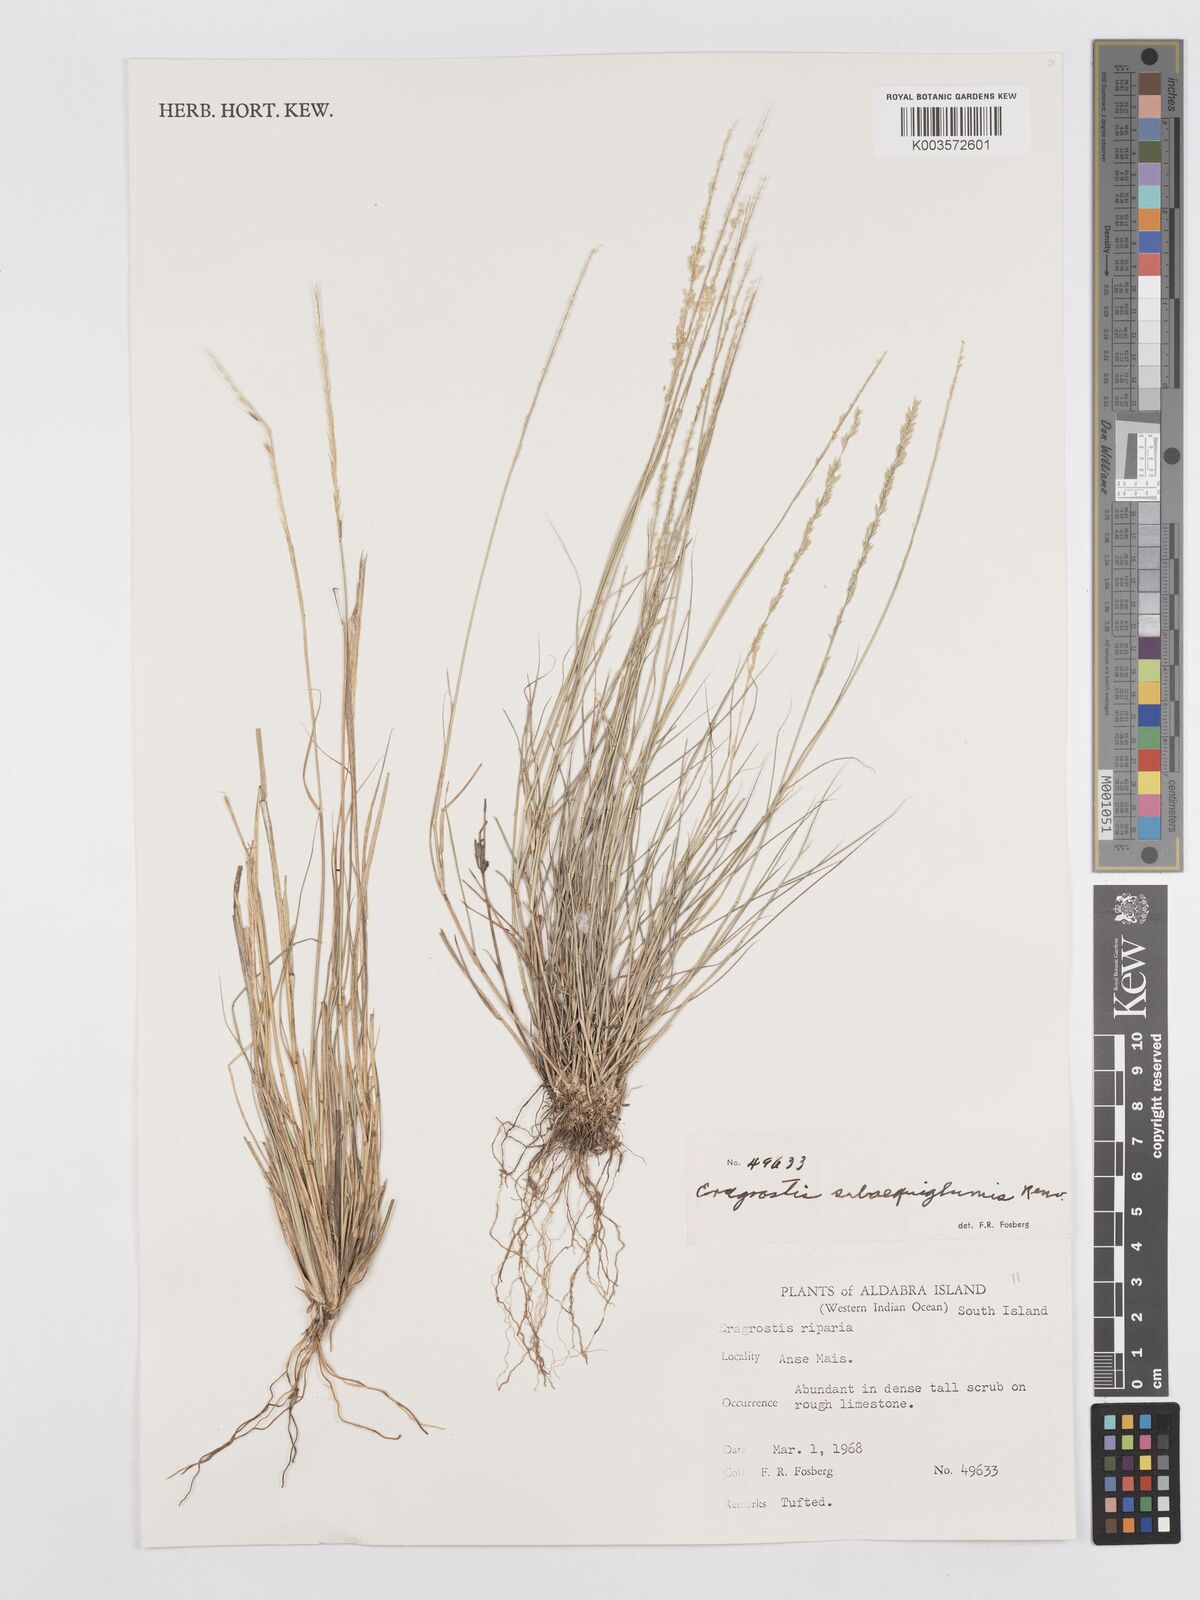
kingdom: Plantae
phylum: Tracheophyta
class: Liliopsida
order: Poales
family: Poaceae
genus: Eragrostis
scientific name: Eragrostis subaequiglumis
